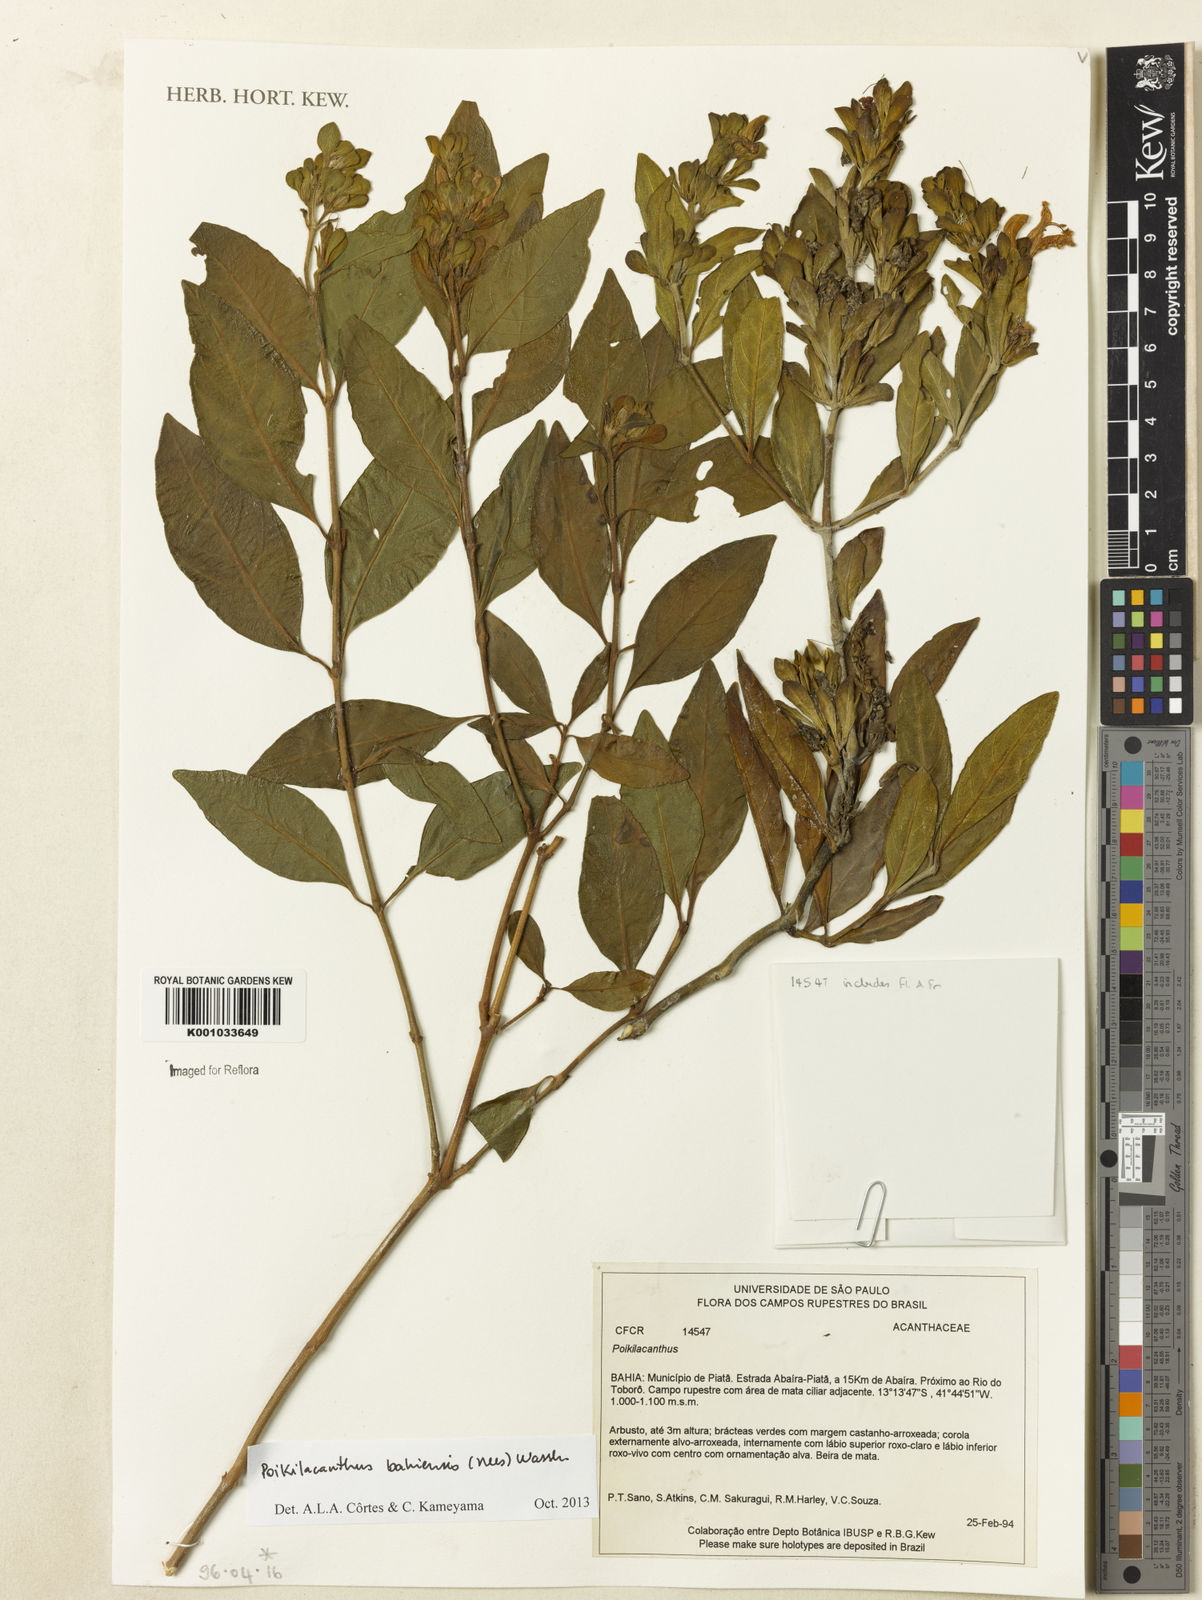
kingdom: Plantae
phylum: Tracheophyta
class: Magnoliopsida
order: Lamiales
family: Acanthaceae
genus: Poikilacanthus
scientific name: Poikilacanthus bahiensis
